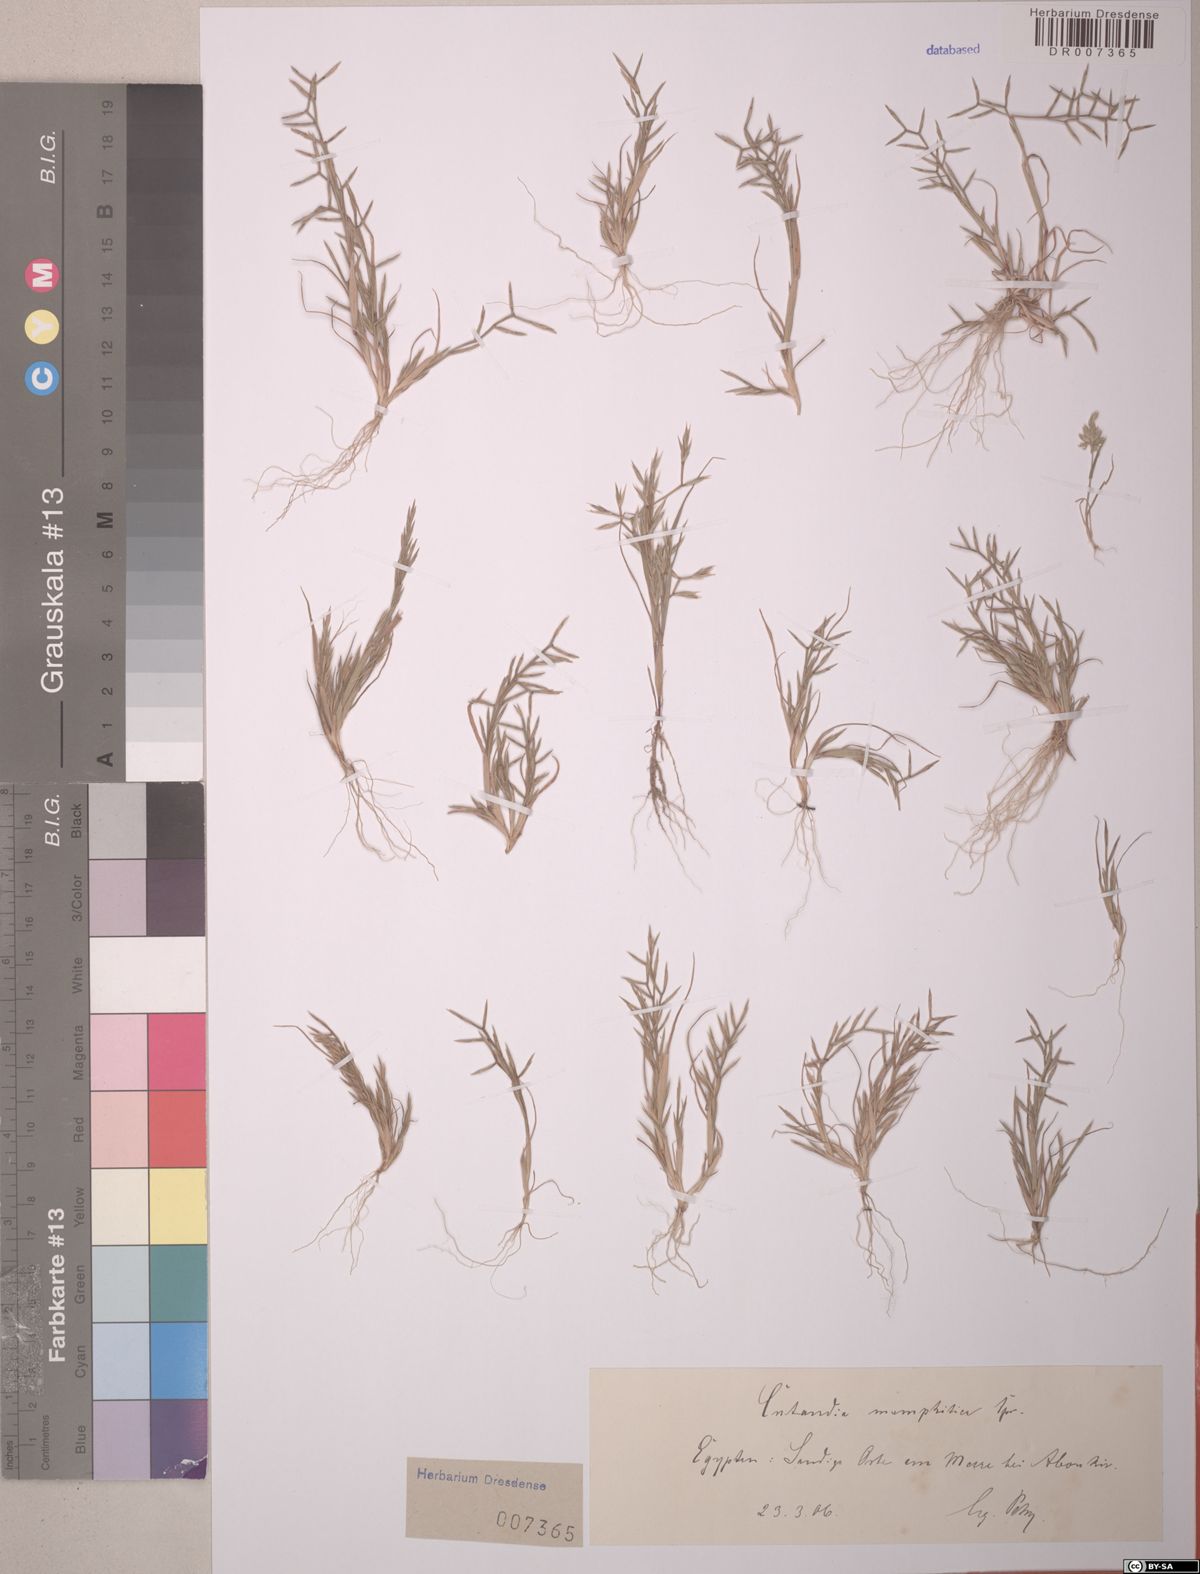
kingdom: Plantae
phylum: Tracheophyta
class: Liliopsida
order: Poales
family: Poaceae
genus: Cutandia
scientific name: Cutandia memphitica
